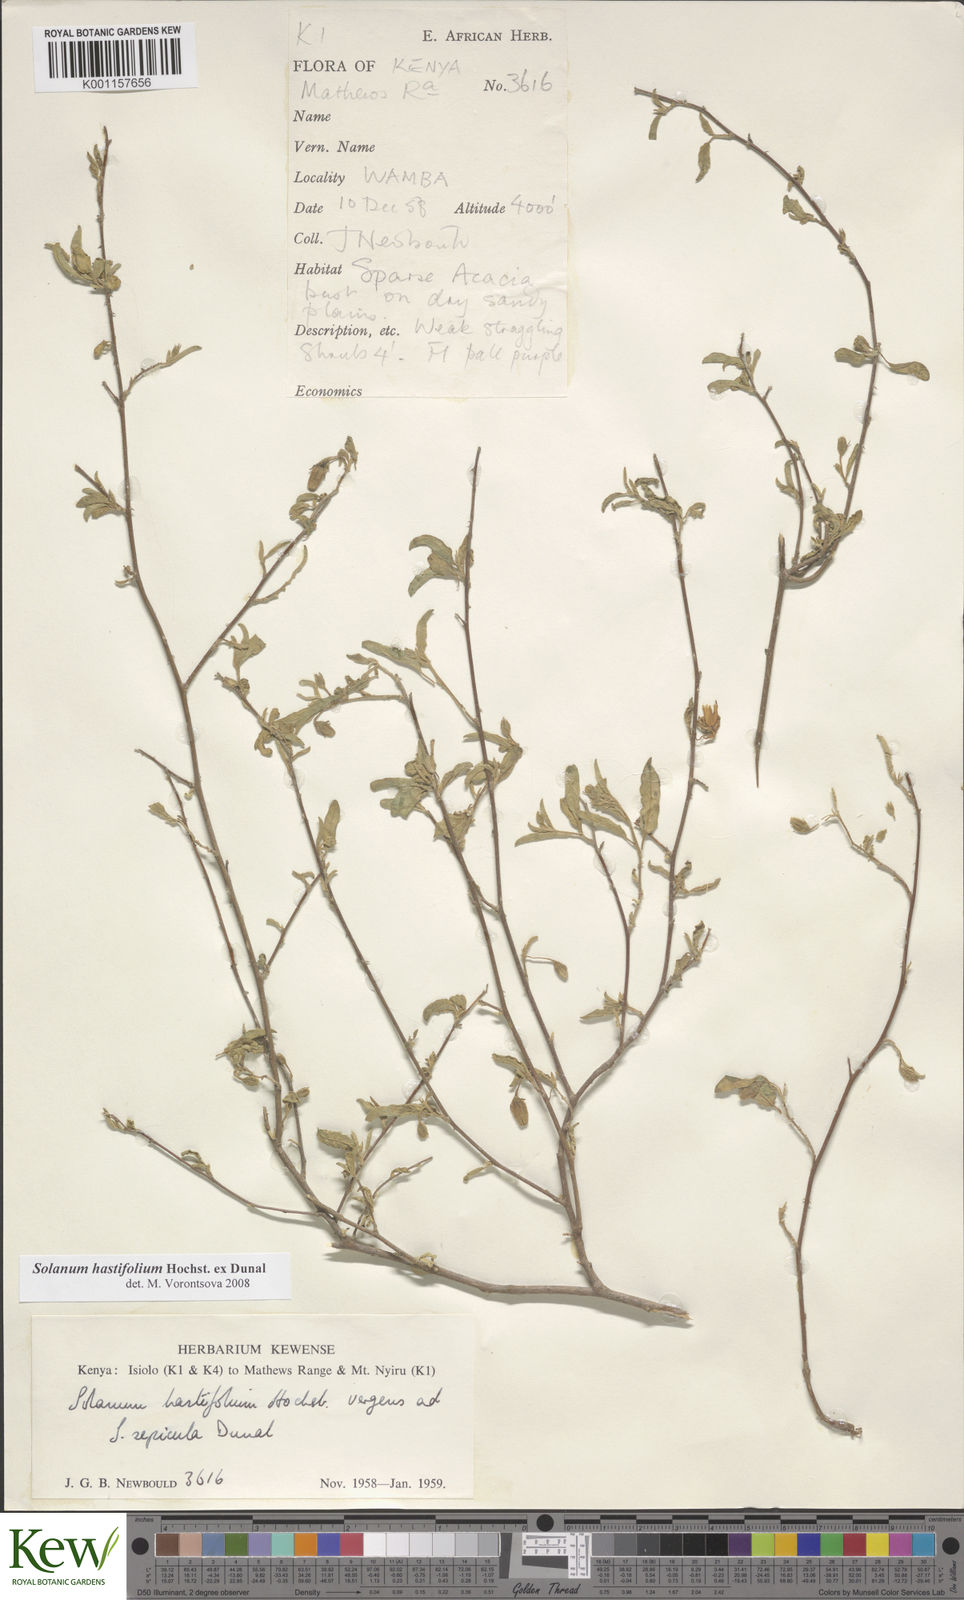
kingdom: Plantae
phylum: Tracheophyta
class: Magnoliopsida
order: Solanales
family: Solanaceae
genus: Solanum
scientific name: Solanum hastifolium
